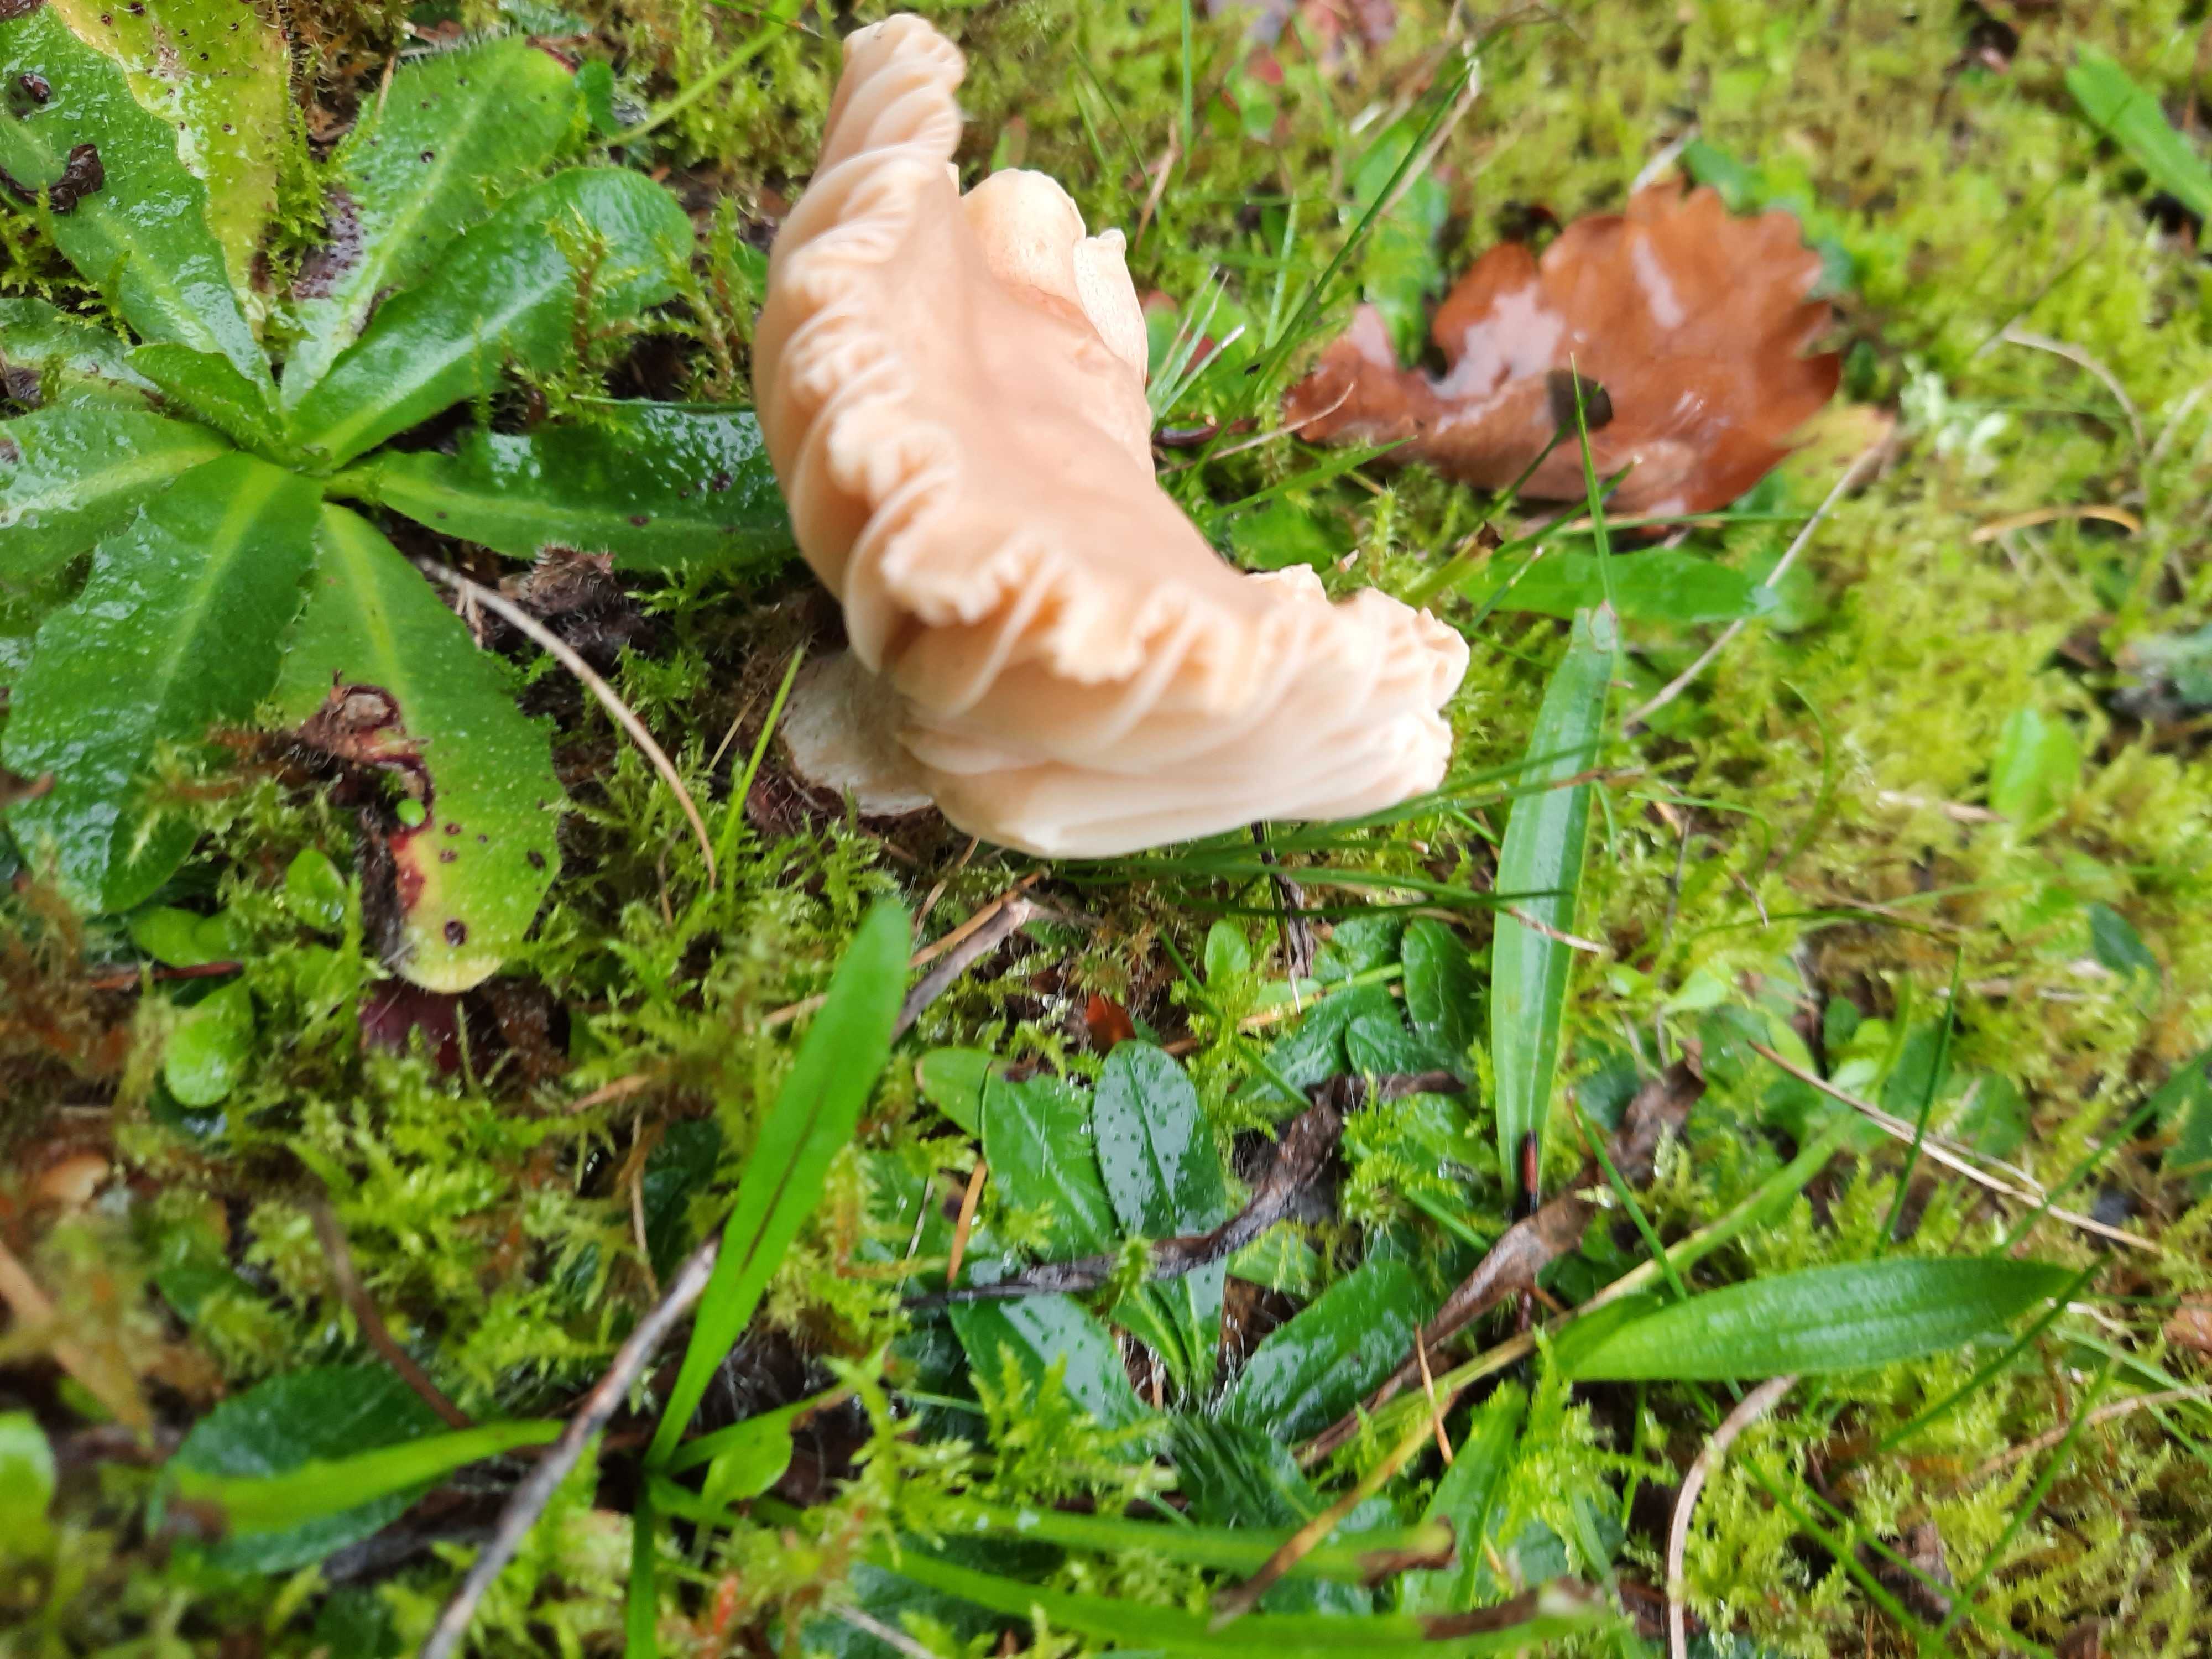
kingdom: Fungi
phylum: Basidiomycota
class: Agaricomycetes
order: Agaricales
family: Hygrophoraceae
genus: Cuphophyllus
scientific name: Cuphophyllus pratensis
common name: eng-vokshat
